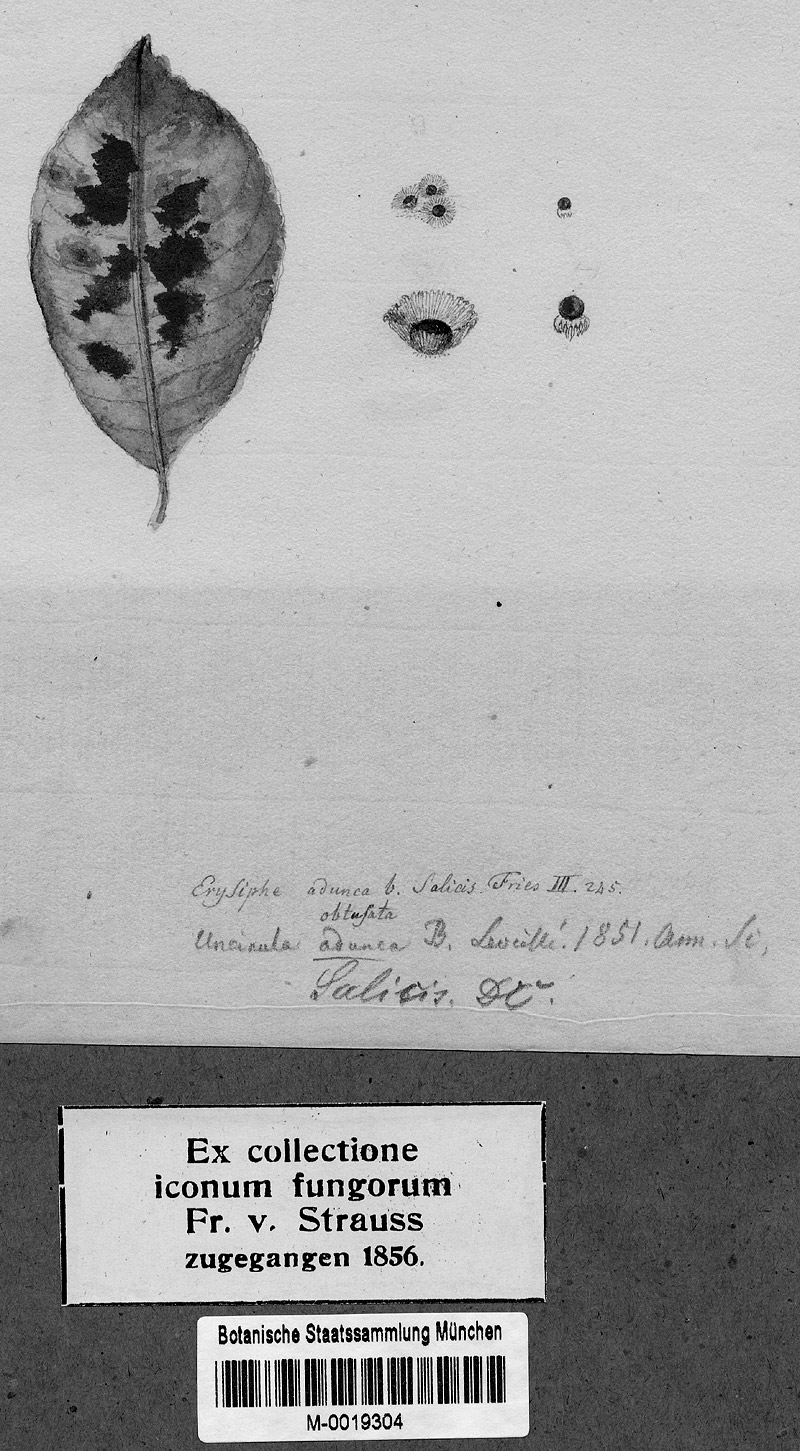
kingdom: Fungi
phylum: Ascomycota
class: Leotiomycetes
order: Helotiales
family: Erysiphaceae
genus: Erysiphe
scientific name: Erysiphe adunca
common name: Willow mildew
